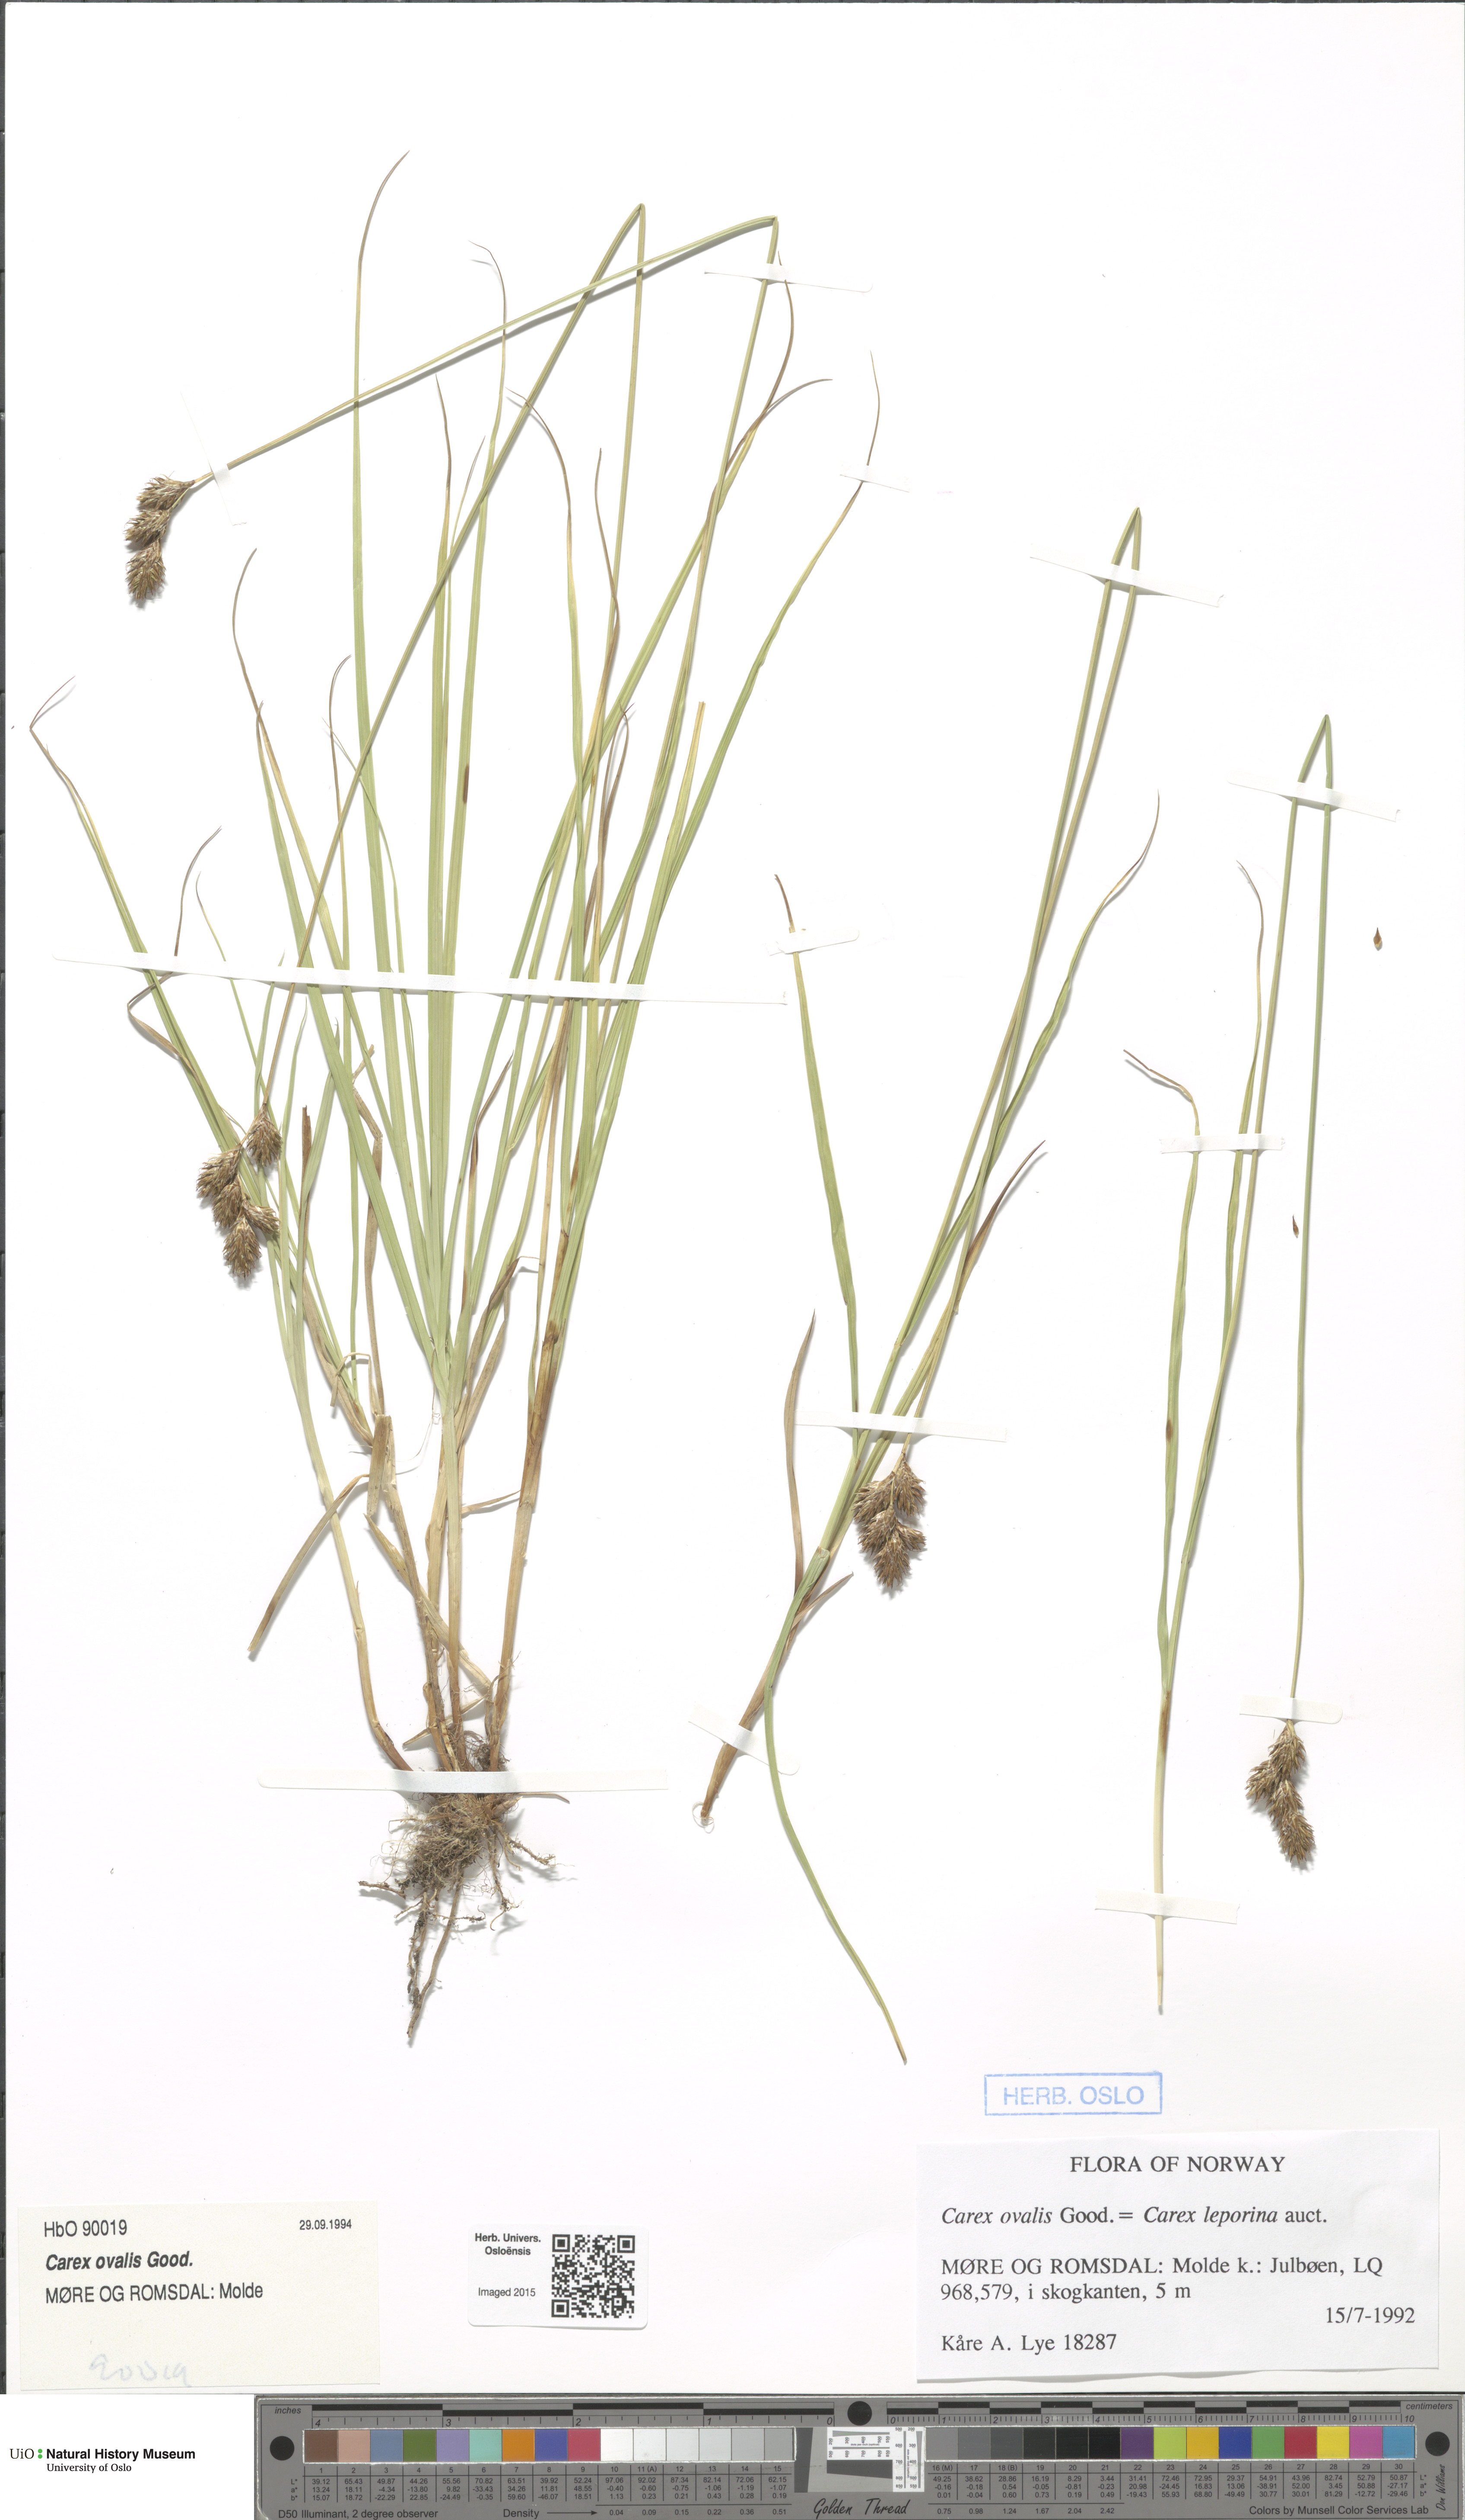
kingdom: Plantae
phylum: Tracheophyta
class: Liliopsida
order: Poales
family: Cyperaceae
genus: Carex
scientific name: Carex leporina
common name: Oval sedge
